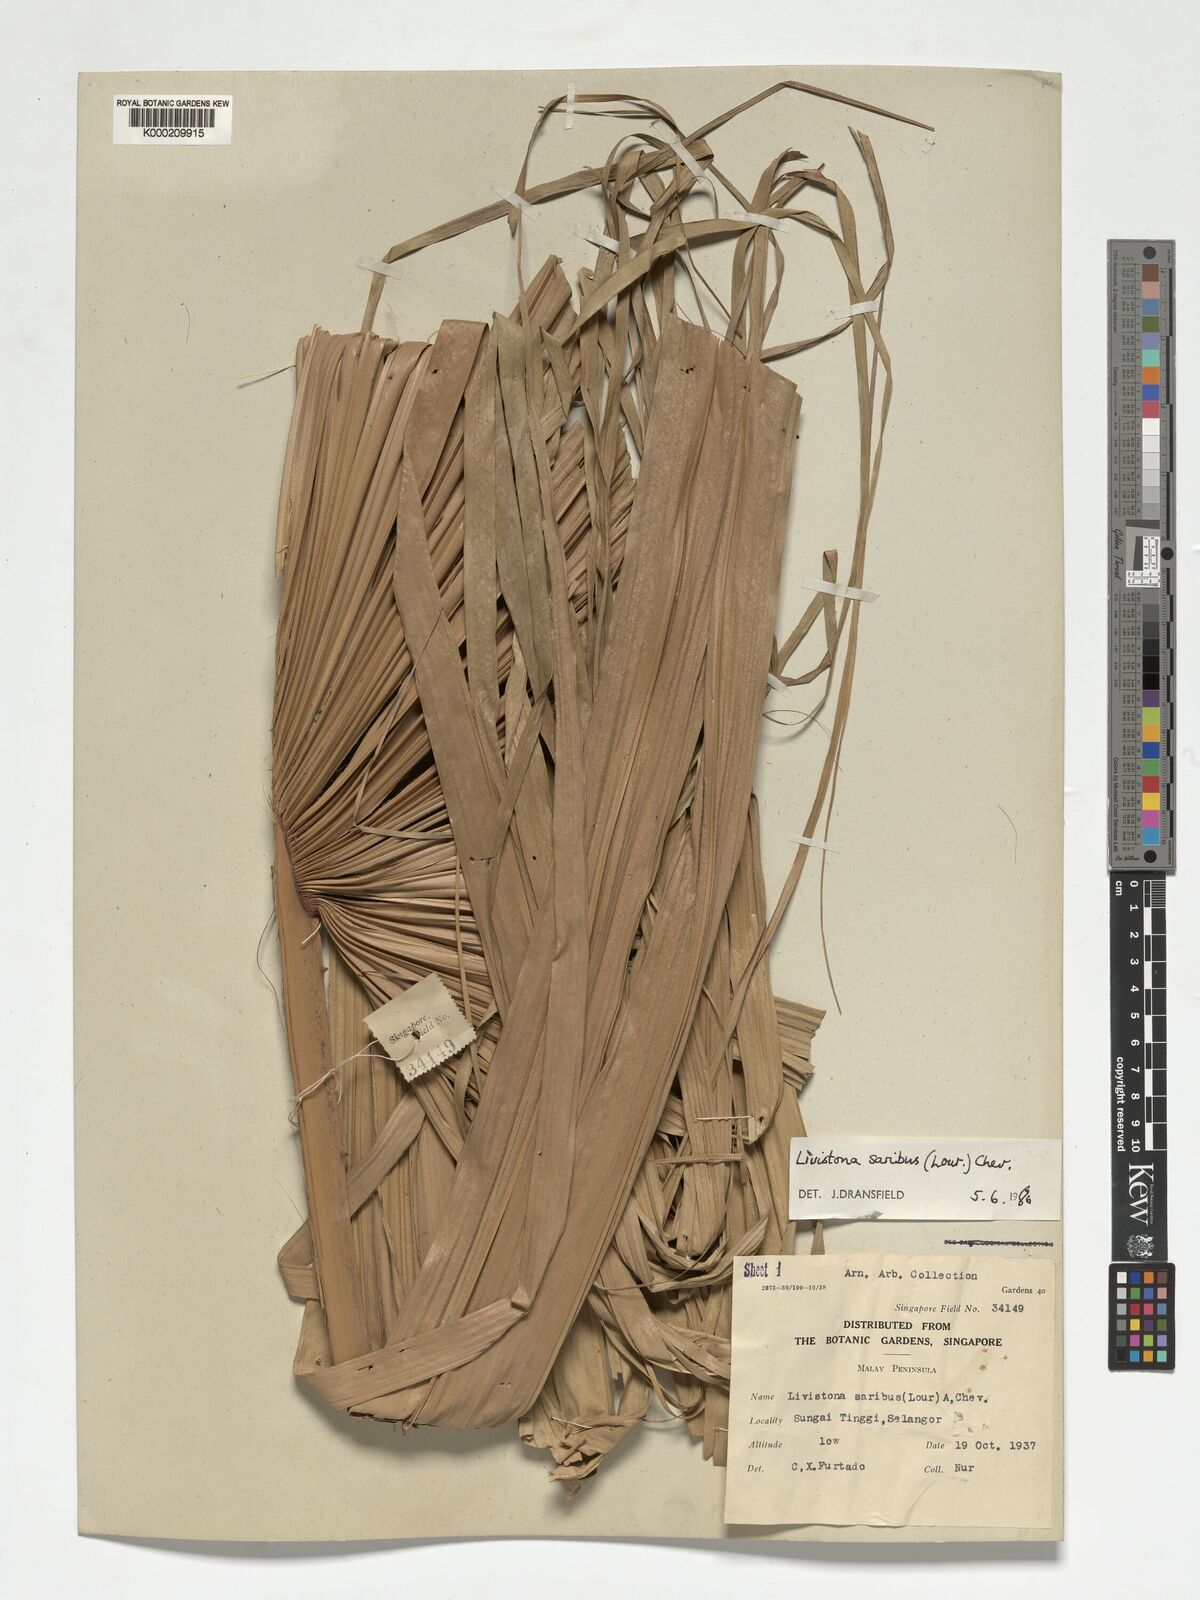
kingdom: Plantae
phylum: Tracheophyta
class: Liliopsida
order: Arecales
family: Arecaceae
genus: Livistona
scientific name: Livistona saribus
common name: Taraw palm
